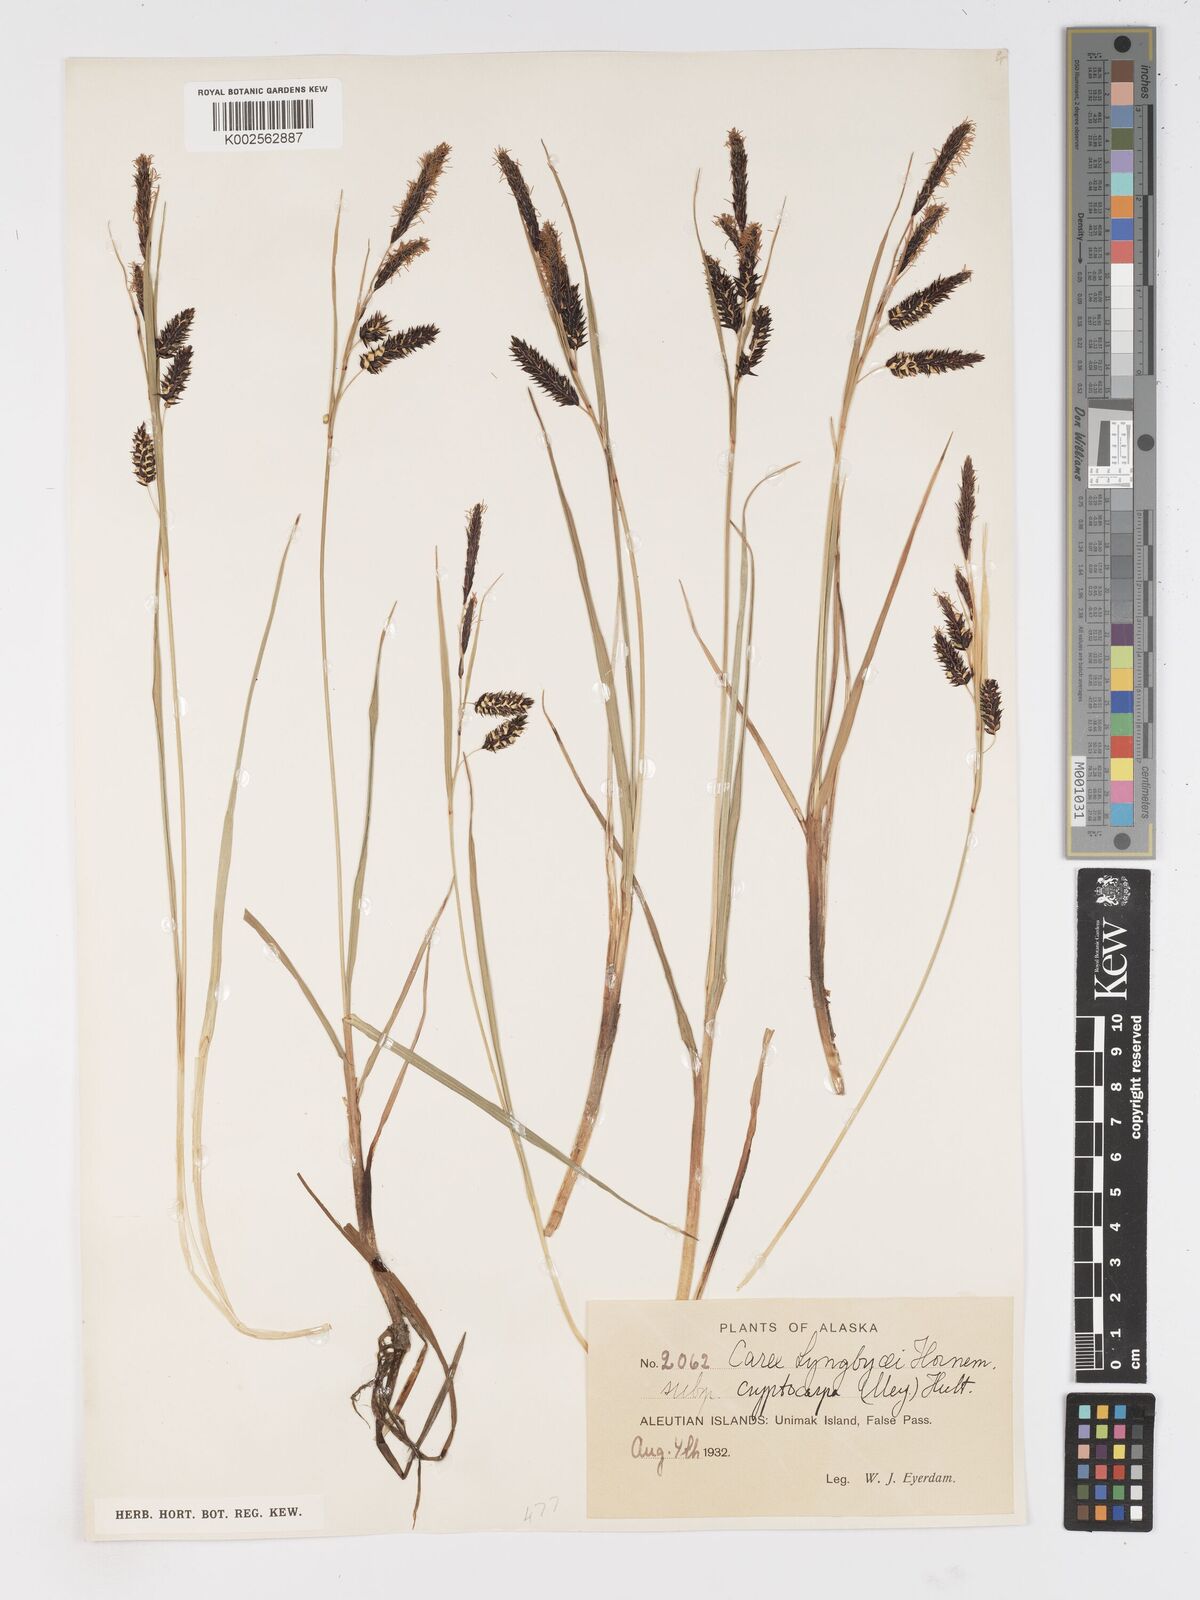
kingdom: Plantae
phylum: Tracheophyta
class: Liliopsida
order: Poales
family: Cyperaceae
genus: Carex
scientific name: Carex lyngbyei
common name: Lyngbye's sedge
